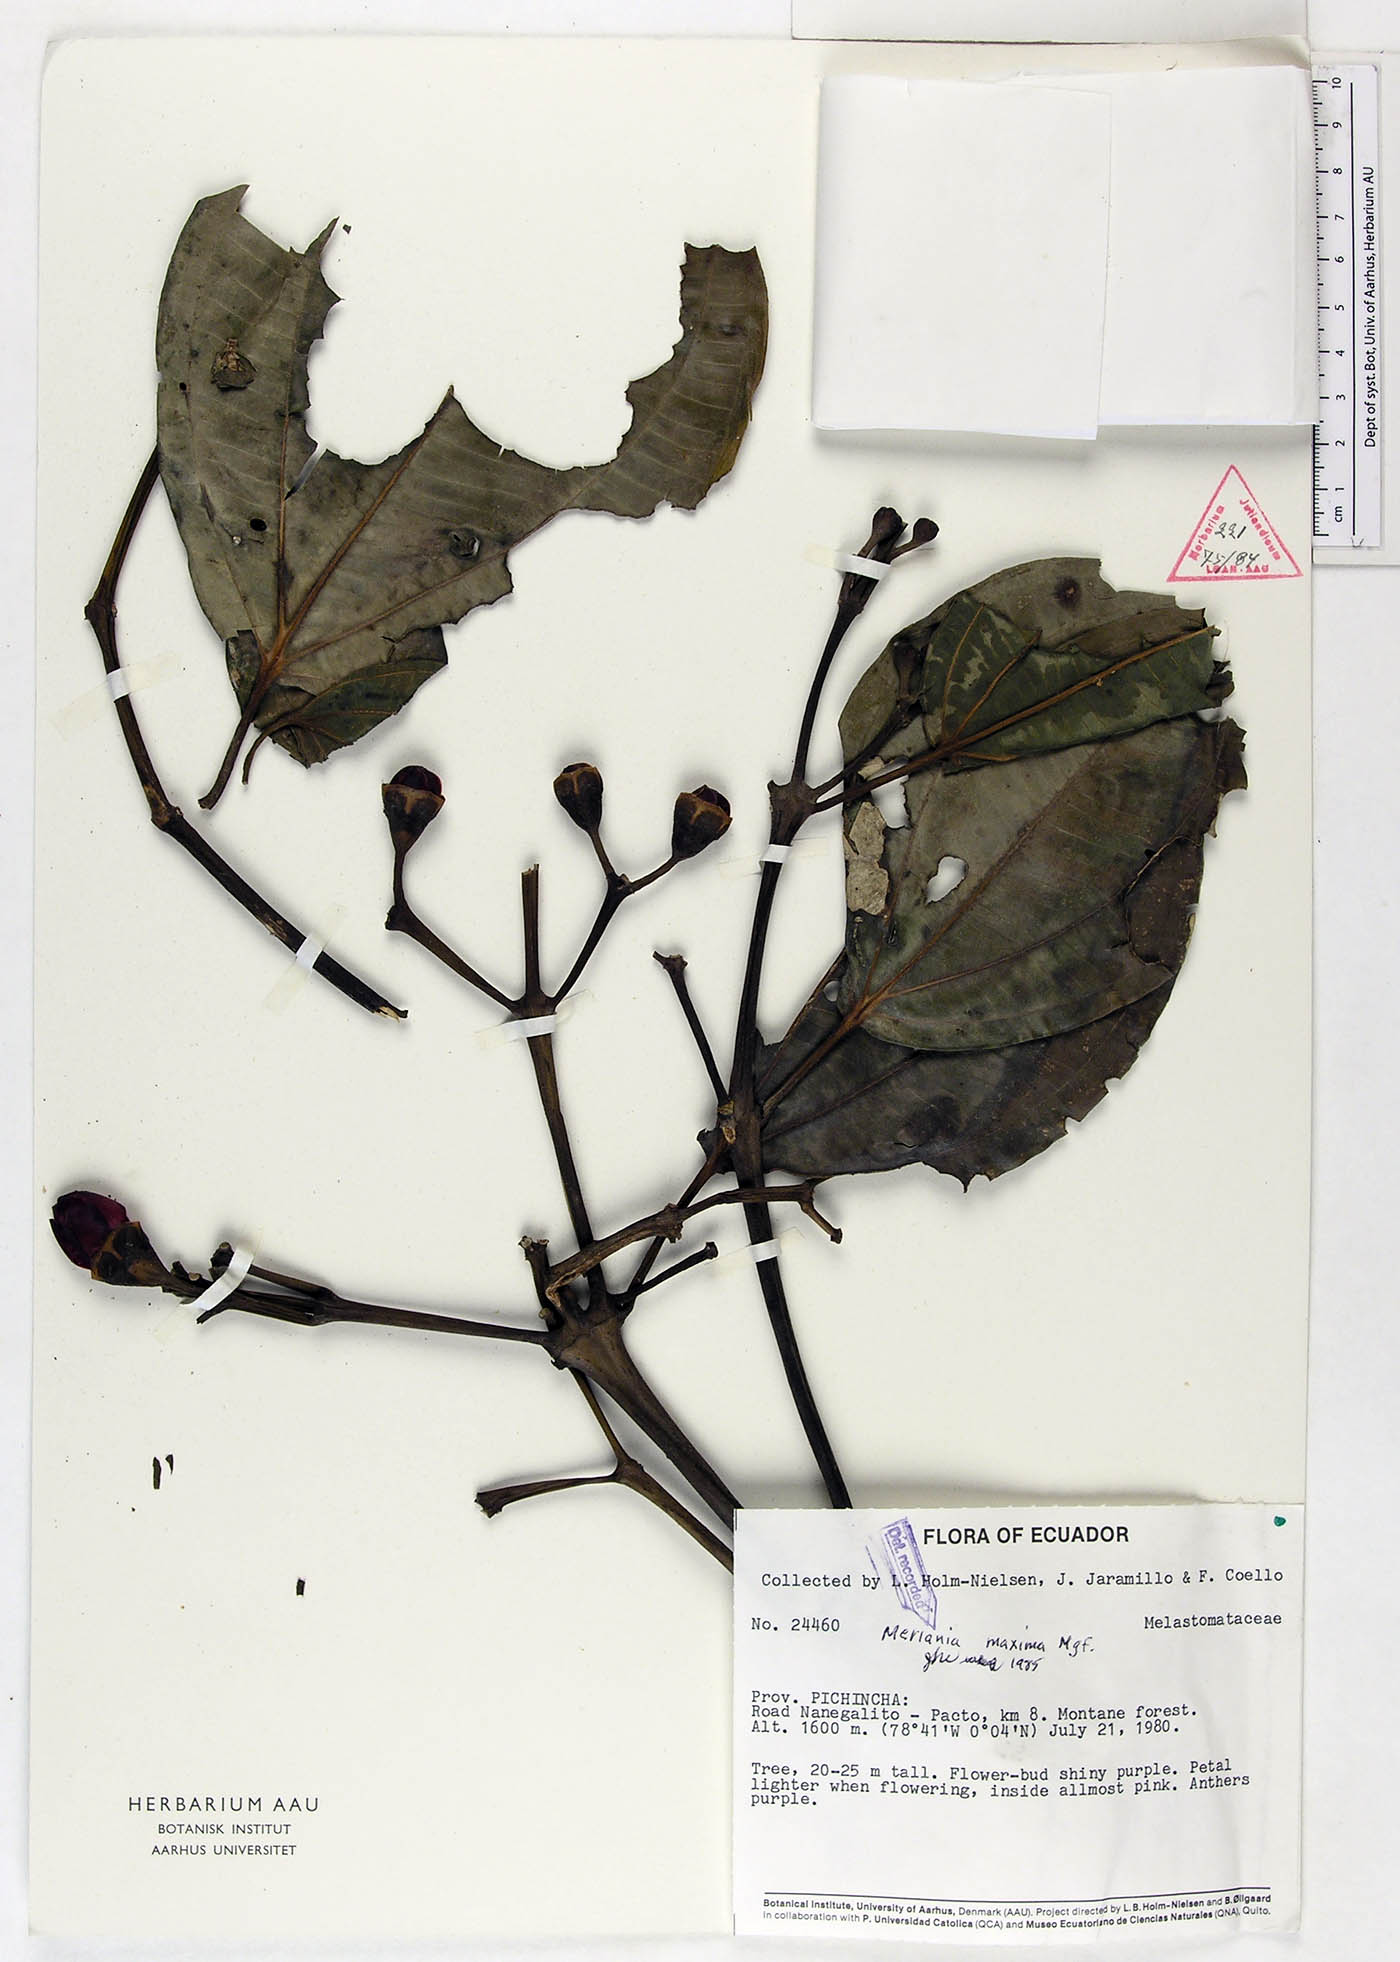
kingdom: Plantae
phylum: Tracheophyta
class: Magnoliopsida
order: Myrtales
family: Melastomataceae
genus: Meriania
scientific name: Meriania maxima
